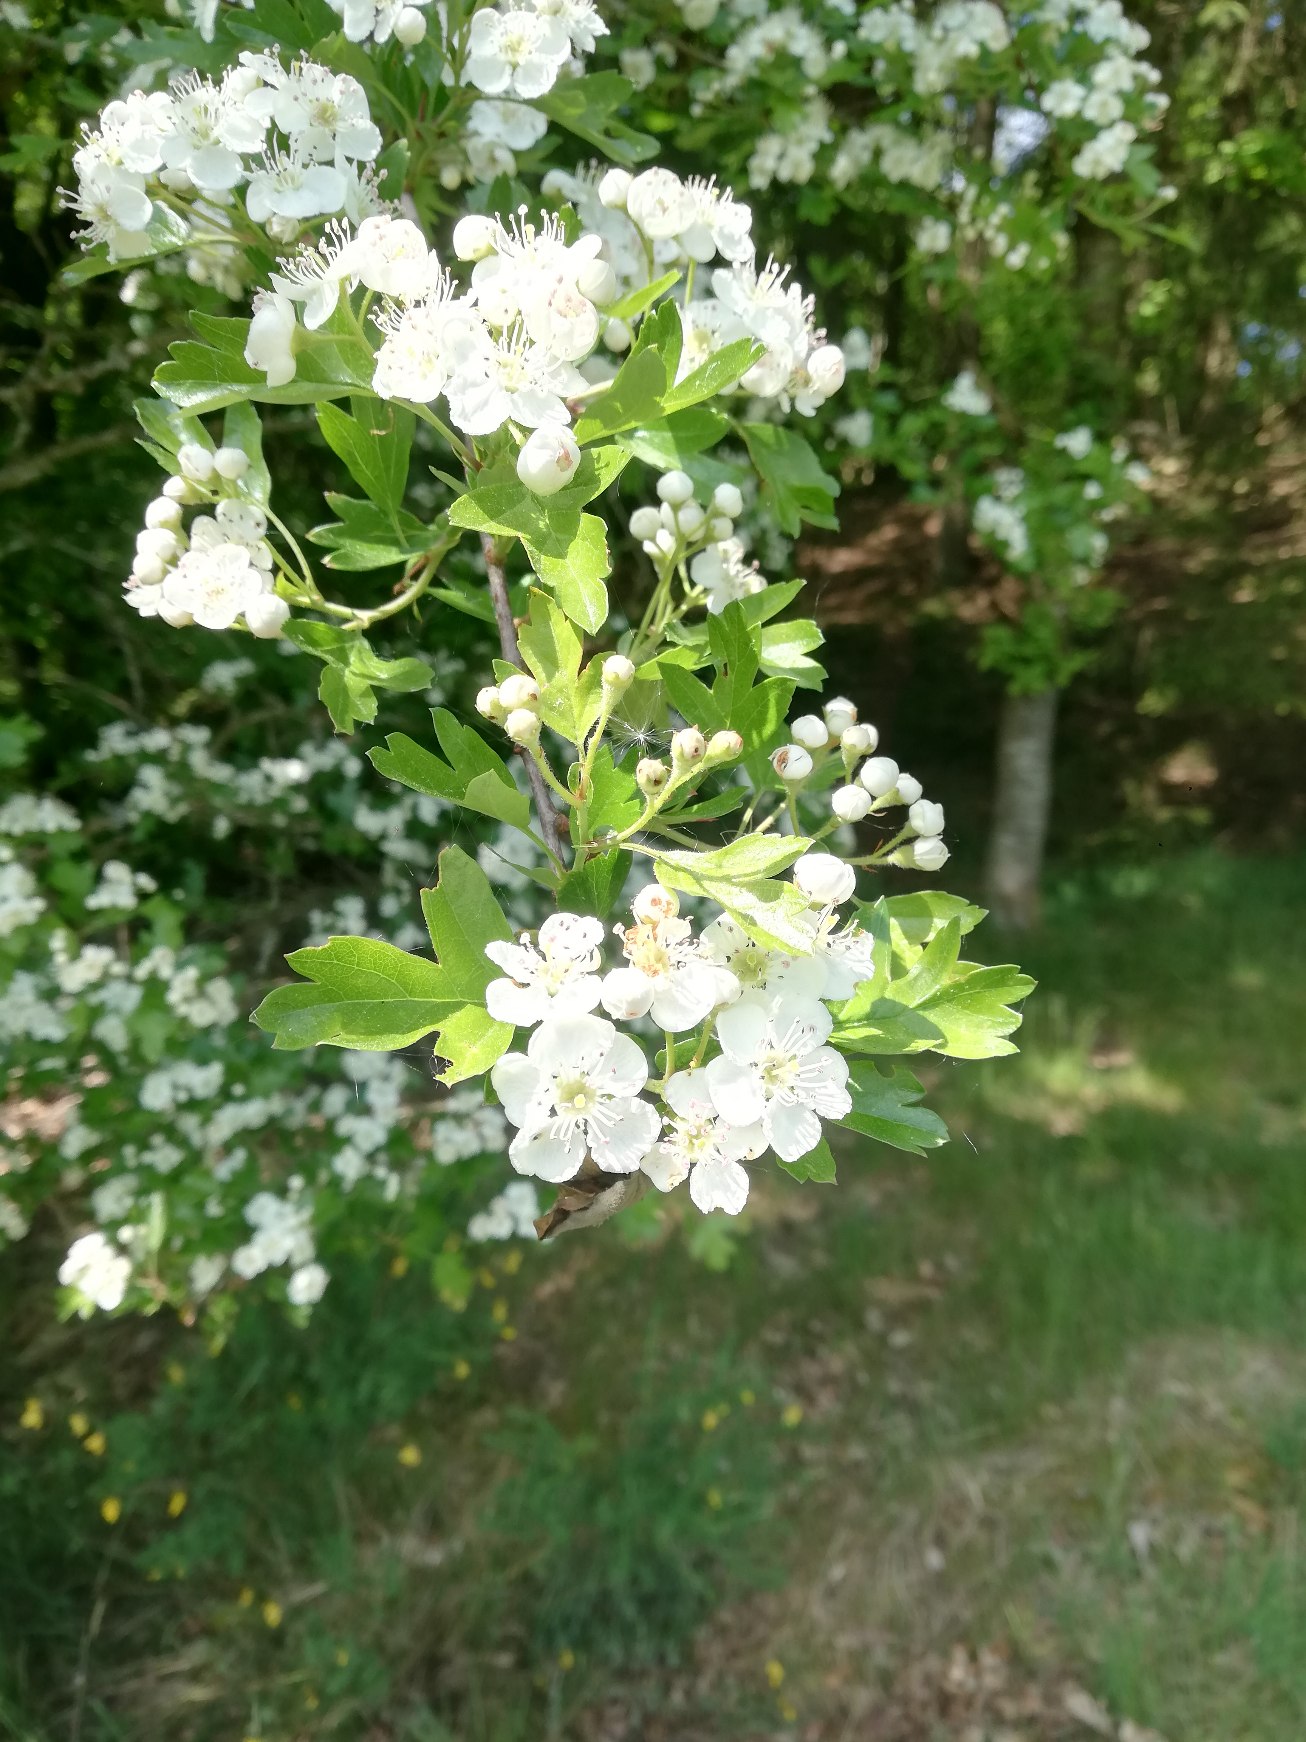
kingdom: Plantae
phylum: Tracheophyta
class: Magnoliopsida
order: Rosales
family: Rosaceae
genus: Crataegus
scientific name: Crataegus monogyna
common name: Engriflet hvidtjørn
